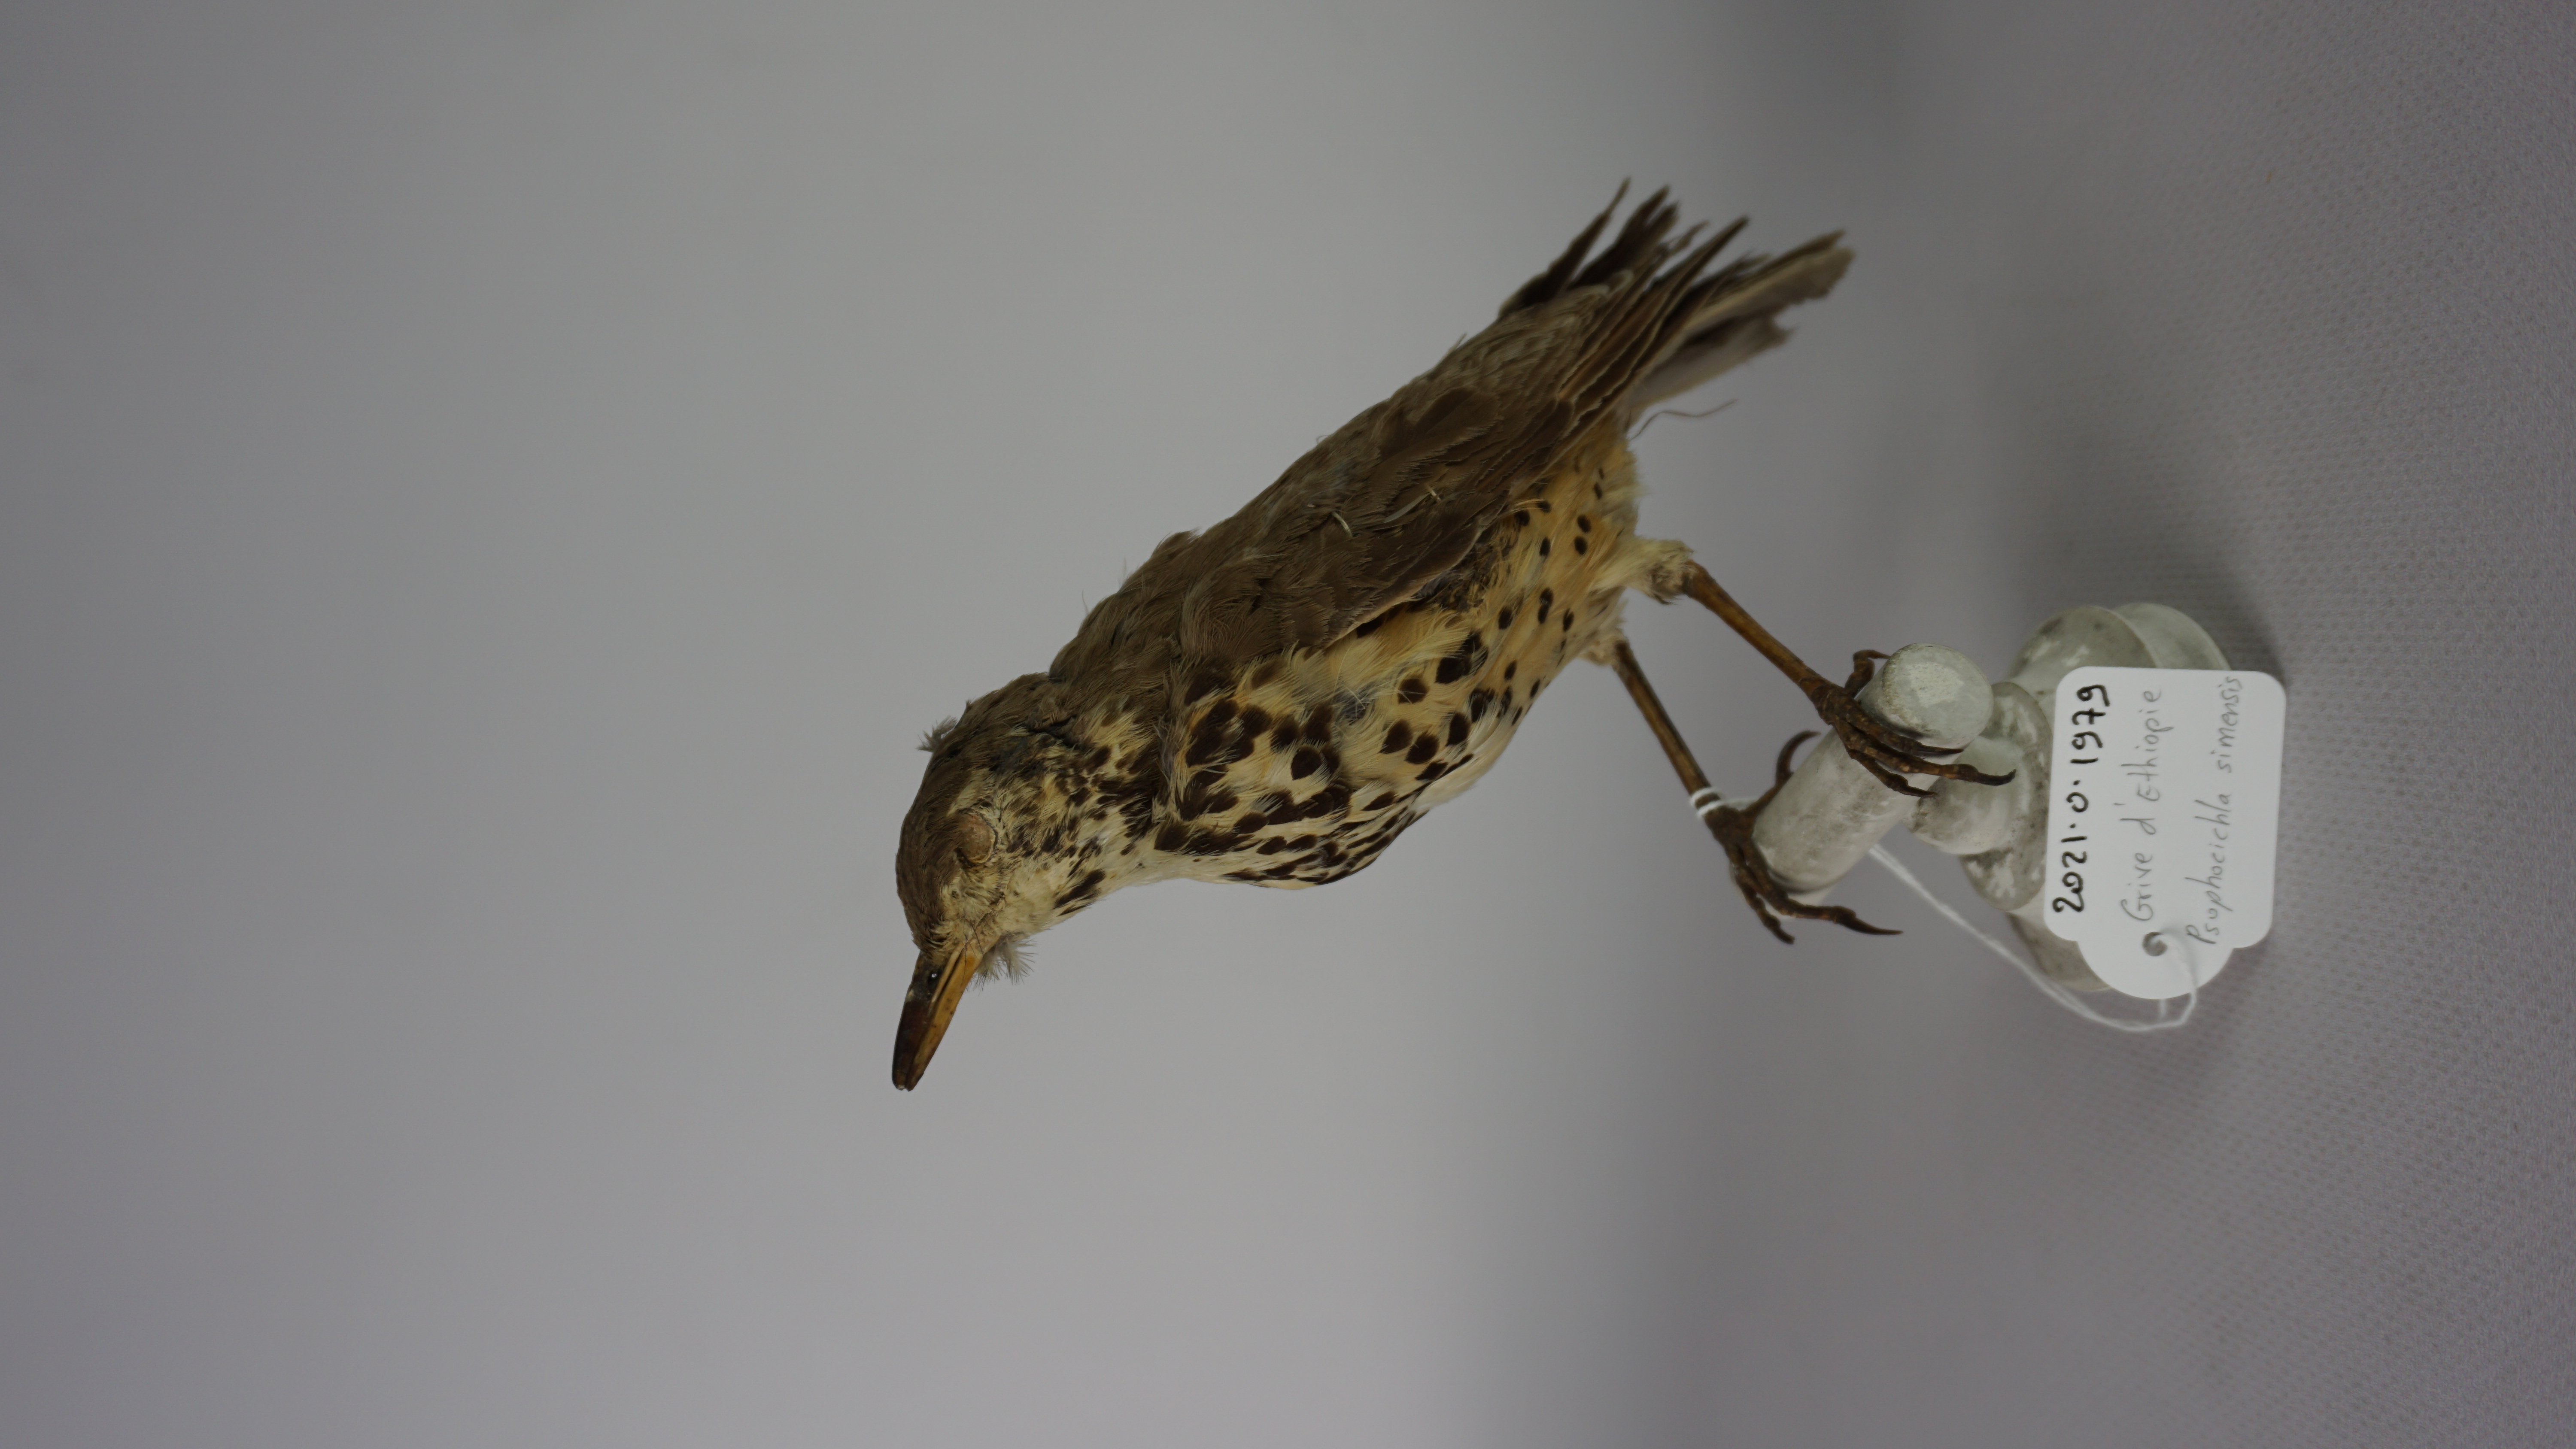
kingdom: Animalia
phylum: Chordata
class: Aves
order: Passeriformes
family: Turdidae
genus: Psophocichla
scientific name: Psophocichla simensis
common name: Ethiopian thrush
